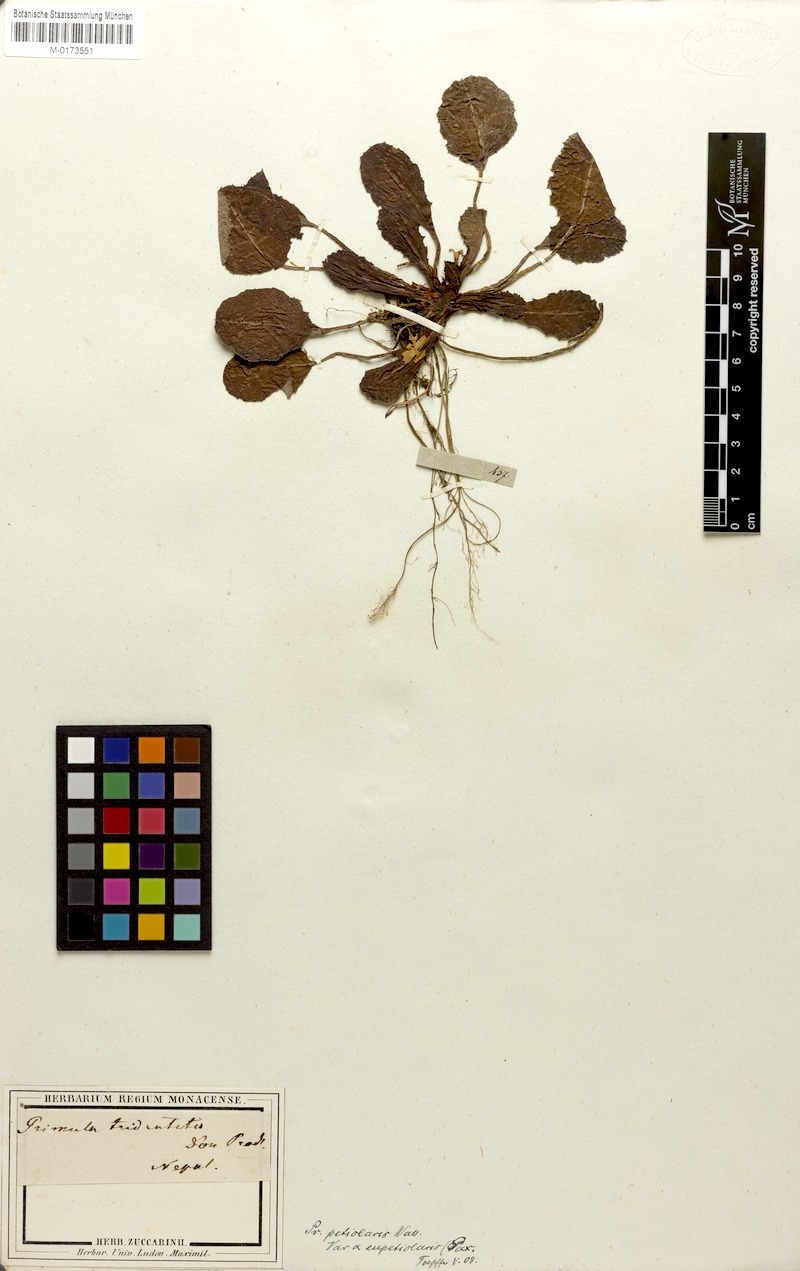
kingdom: Plantae
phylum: Tracheophyta
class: Magnoliopsida
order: Ericales
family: Primulaceae
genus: Primula
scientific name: Primula petiolaris
